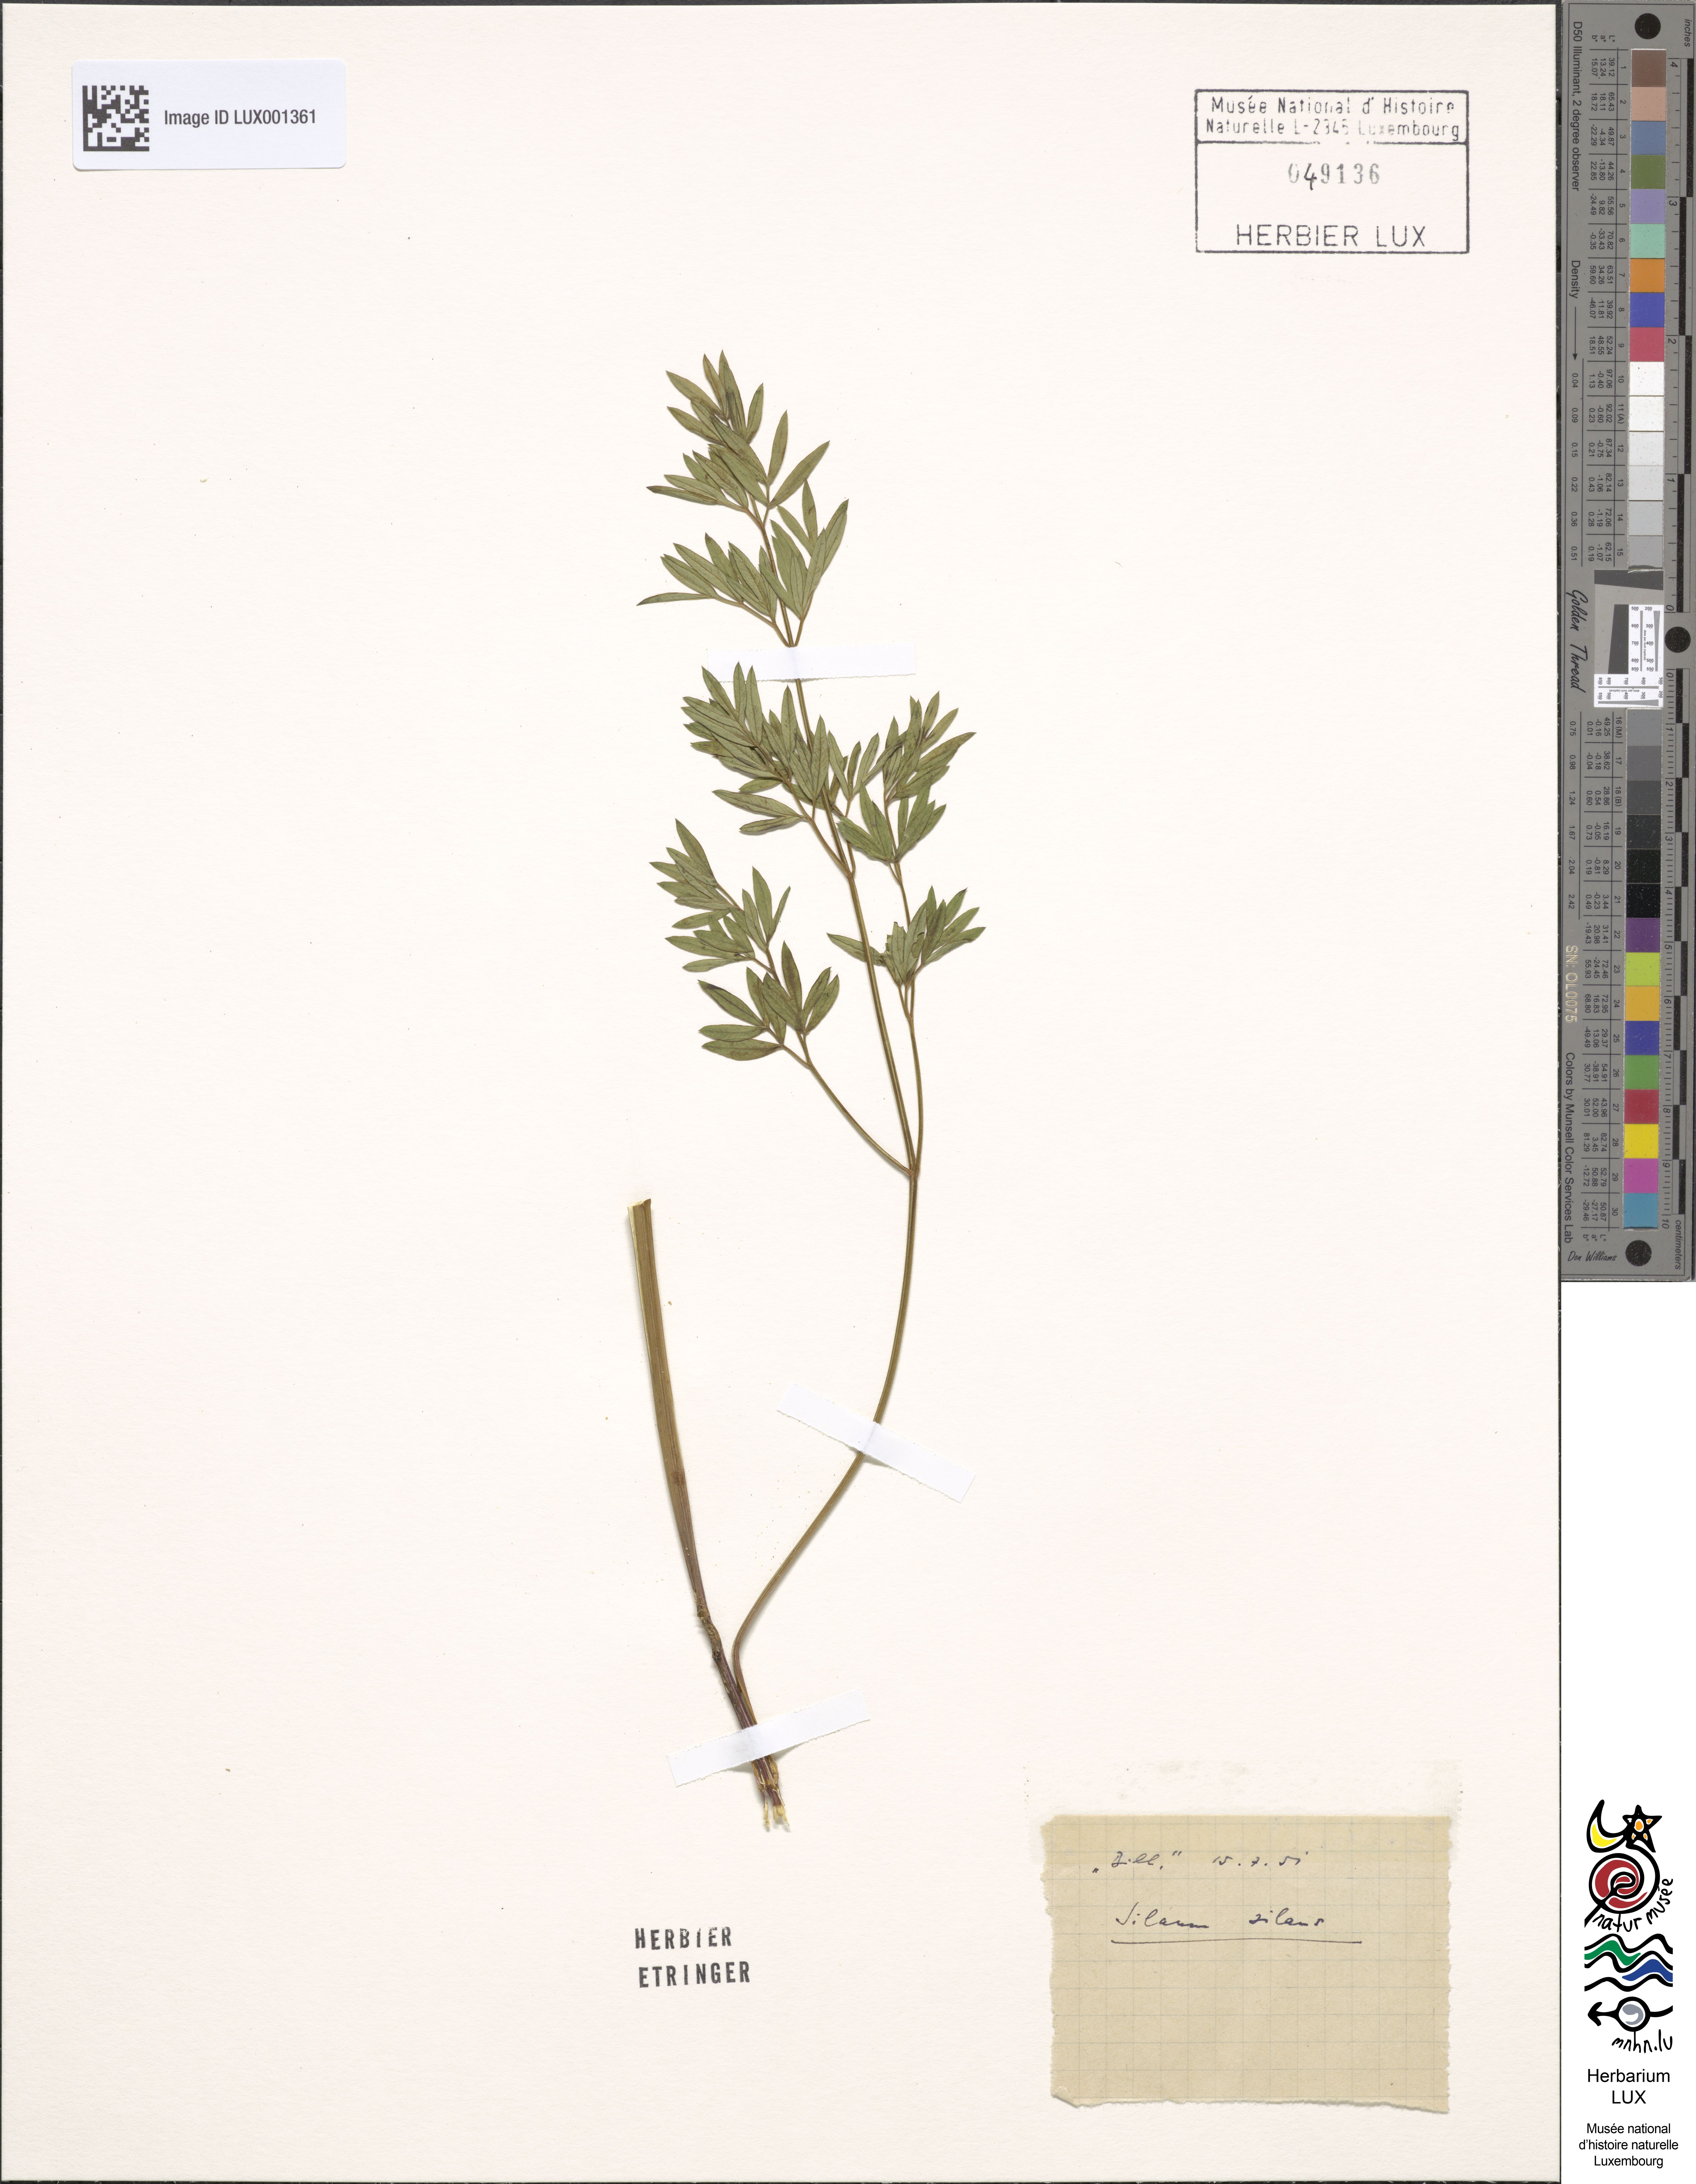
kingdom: Plantae
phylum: Tracheophyta
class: Magnoliopsida
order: Apiales
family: Apiaceae
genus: Silaum
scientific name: Silaum silaus
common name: Pepper-saxifrage
